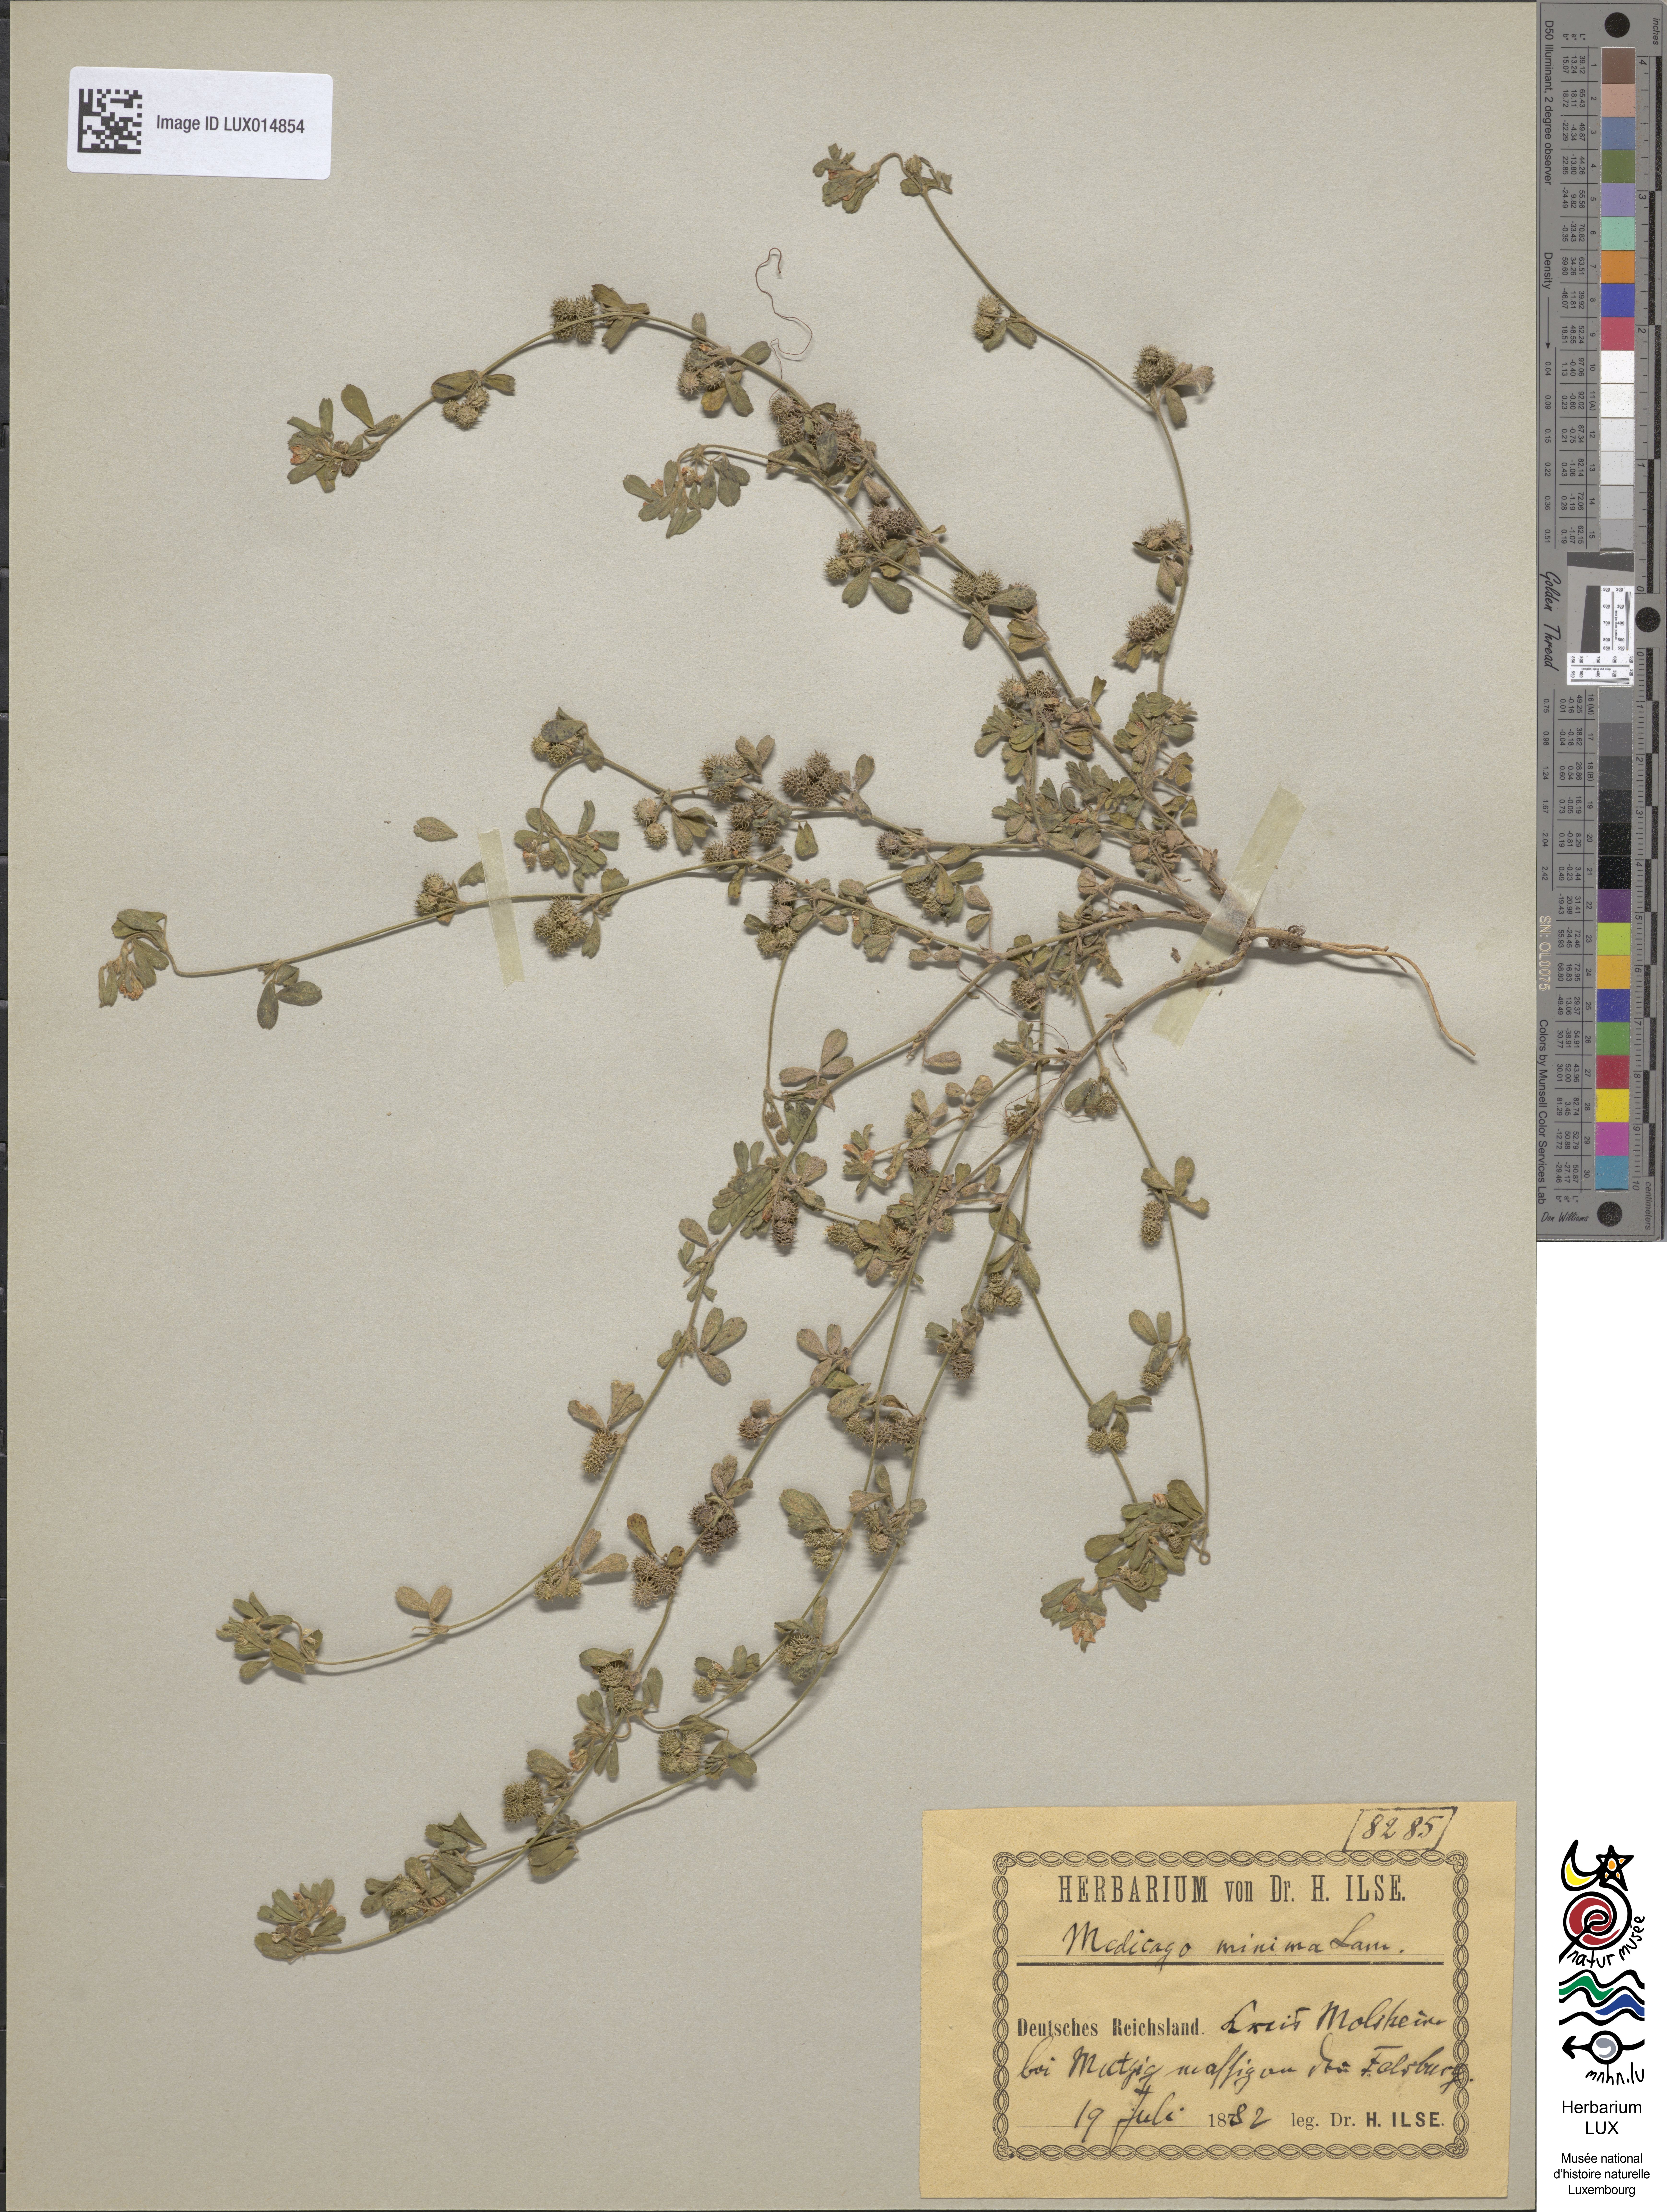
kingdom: Plantae
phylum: Tracheophyta
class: Magnoliopsida
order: Fabales
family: Fabaceae
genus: Medicago
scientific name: Medicago minima
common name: Little bur-clover
